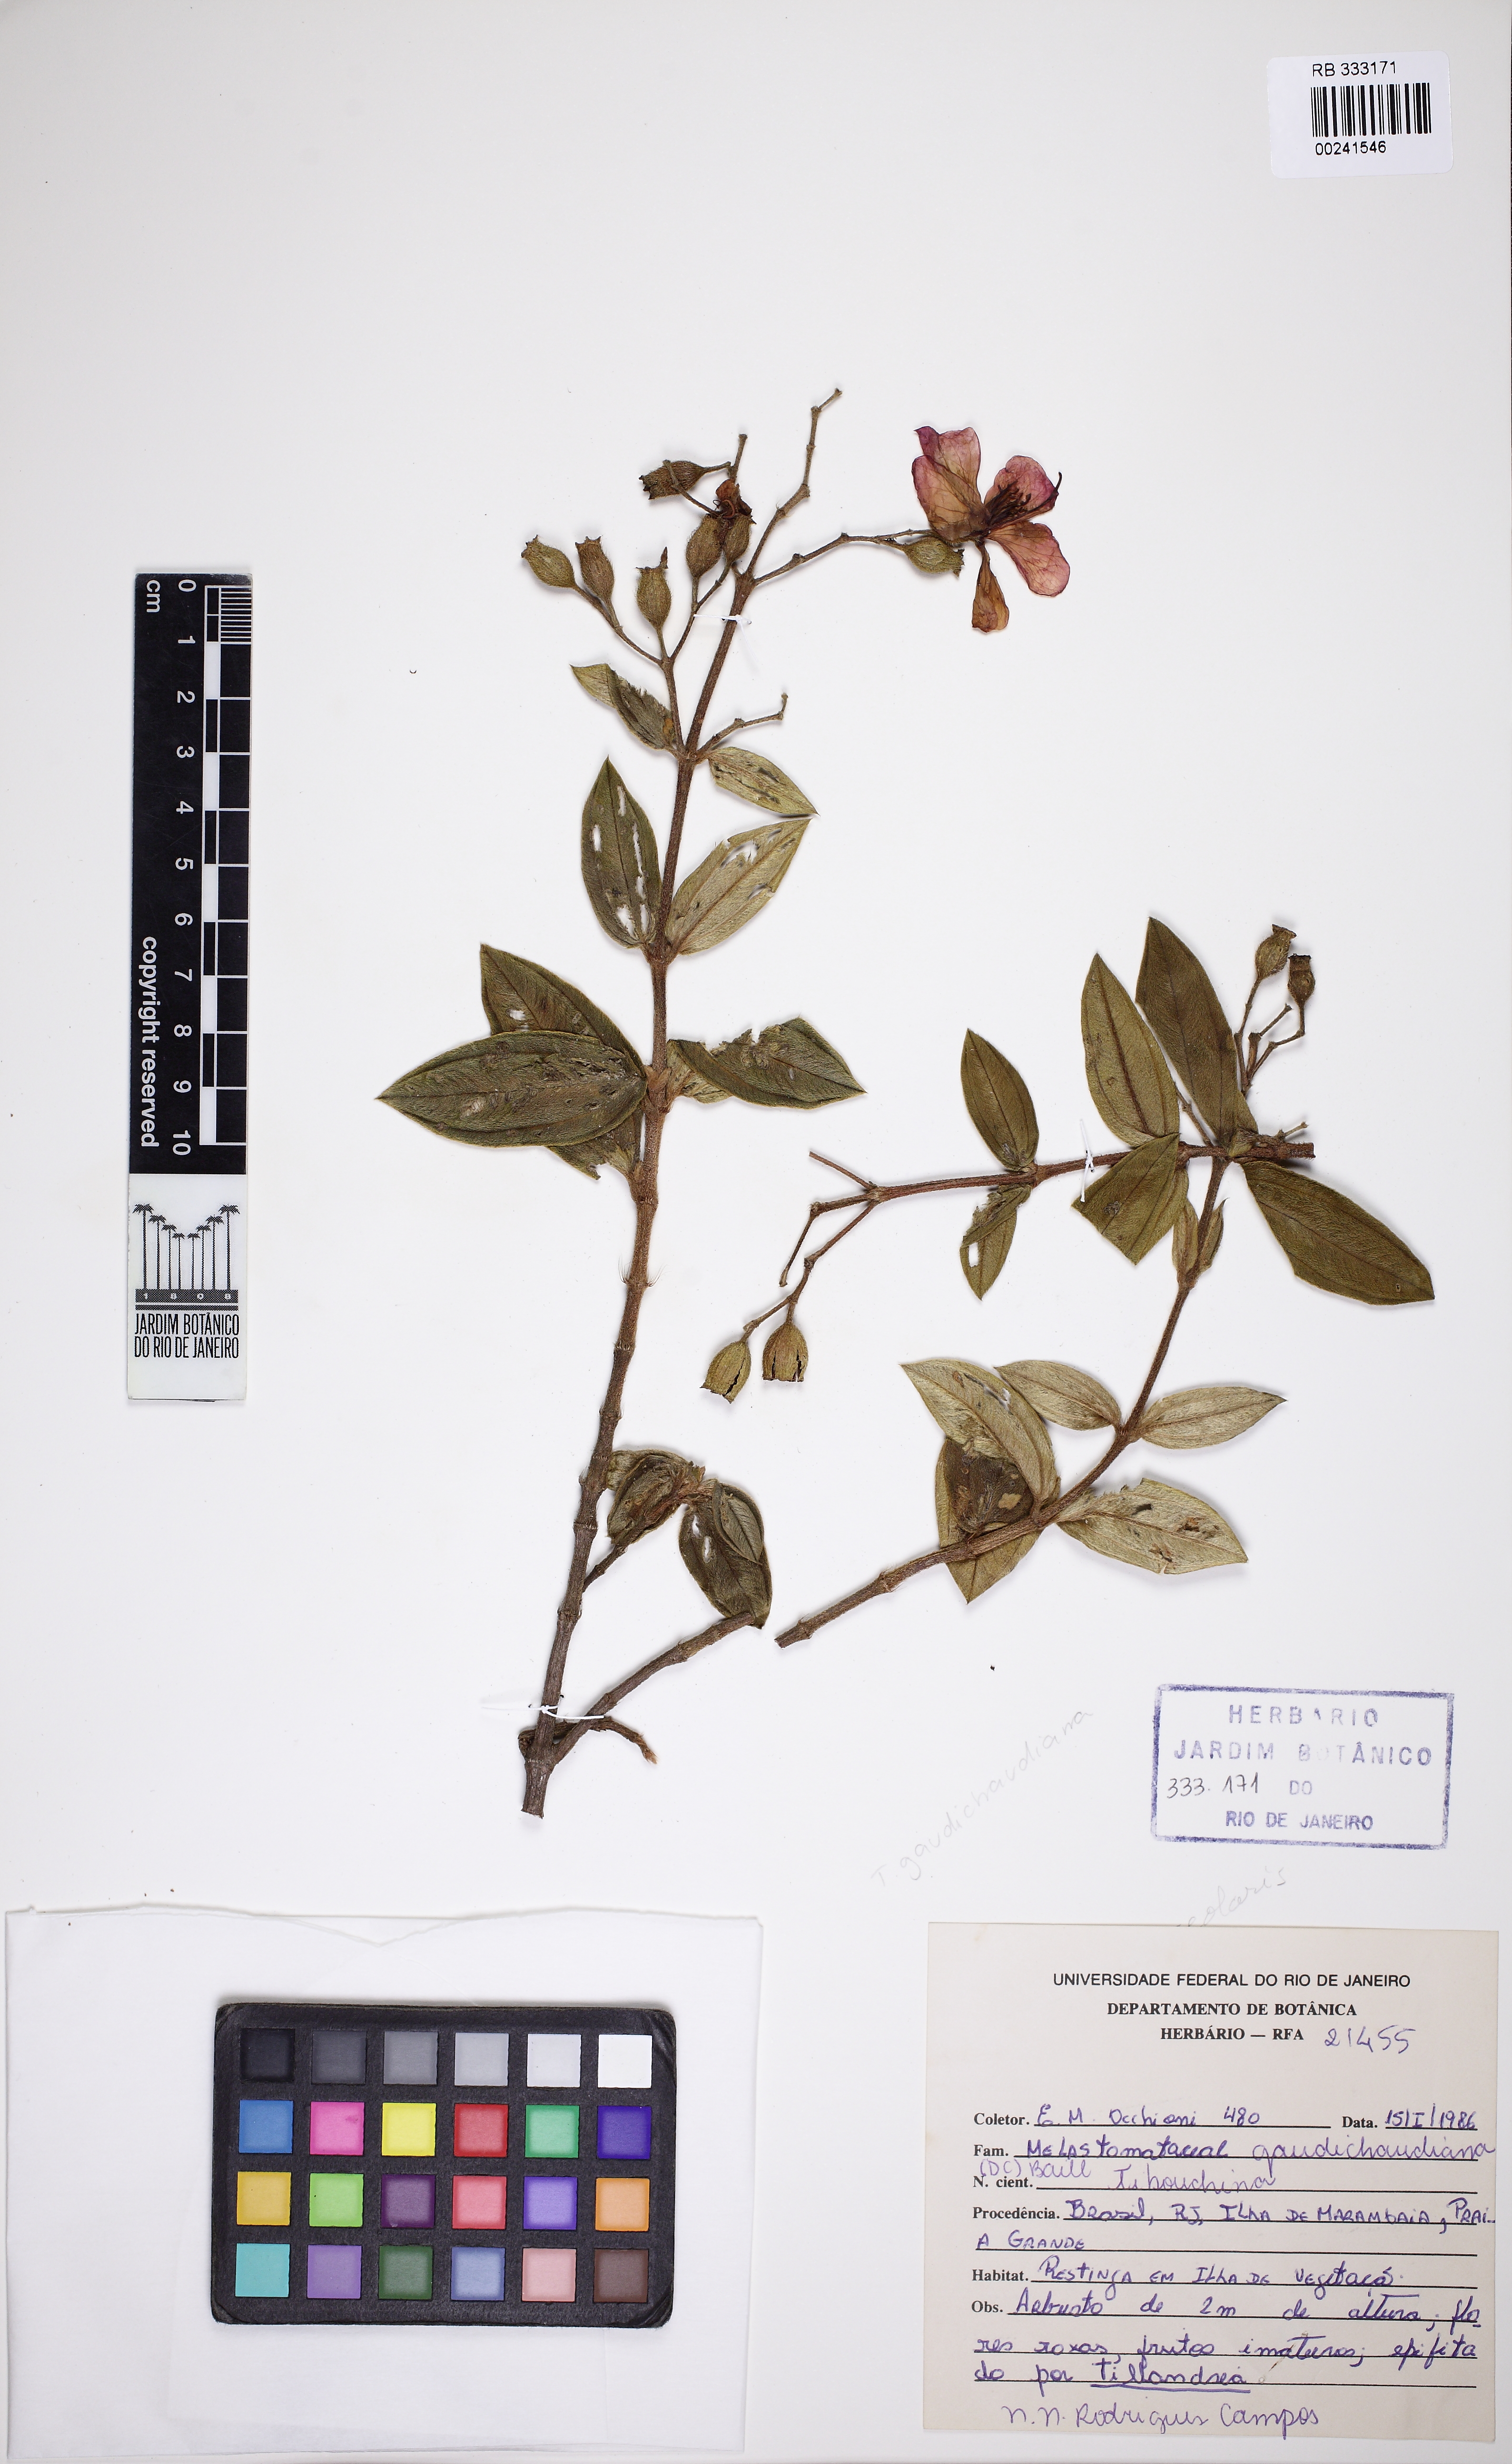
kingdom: Plantae
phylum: Tracheophyta
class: Magnoliopsida
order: Myrtales
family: Melastomataceae
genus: Pleroma
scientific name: Pleroma gaudichaudianum
